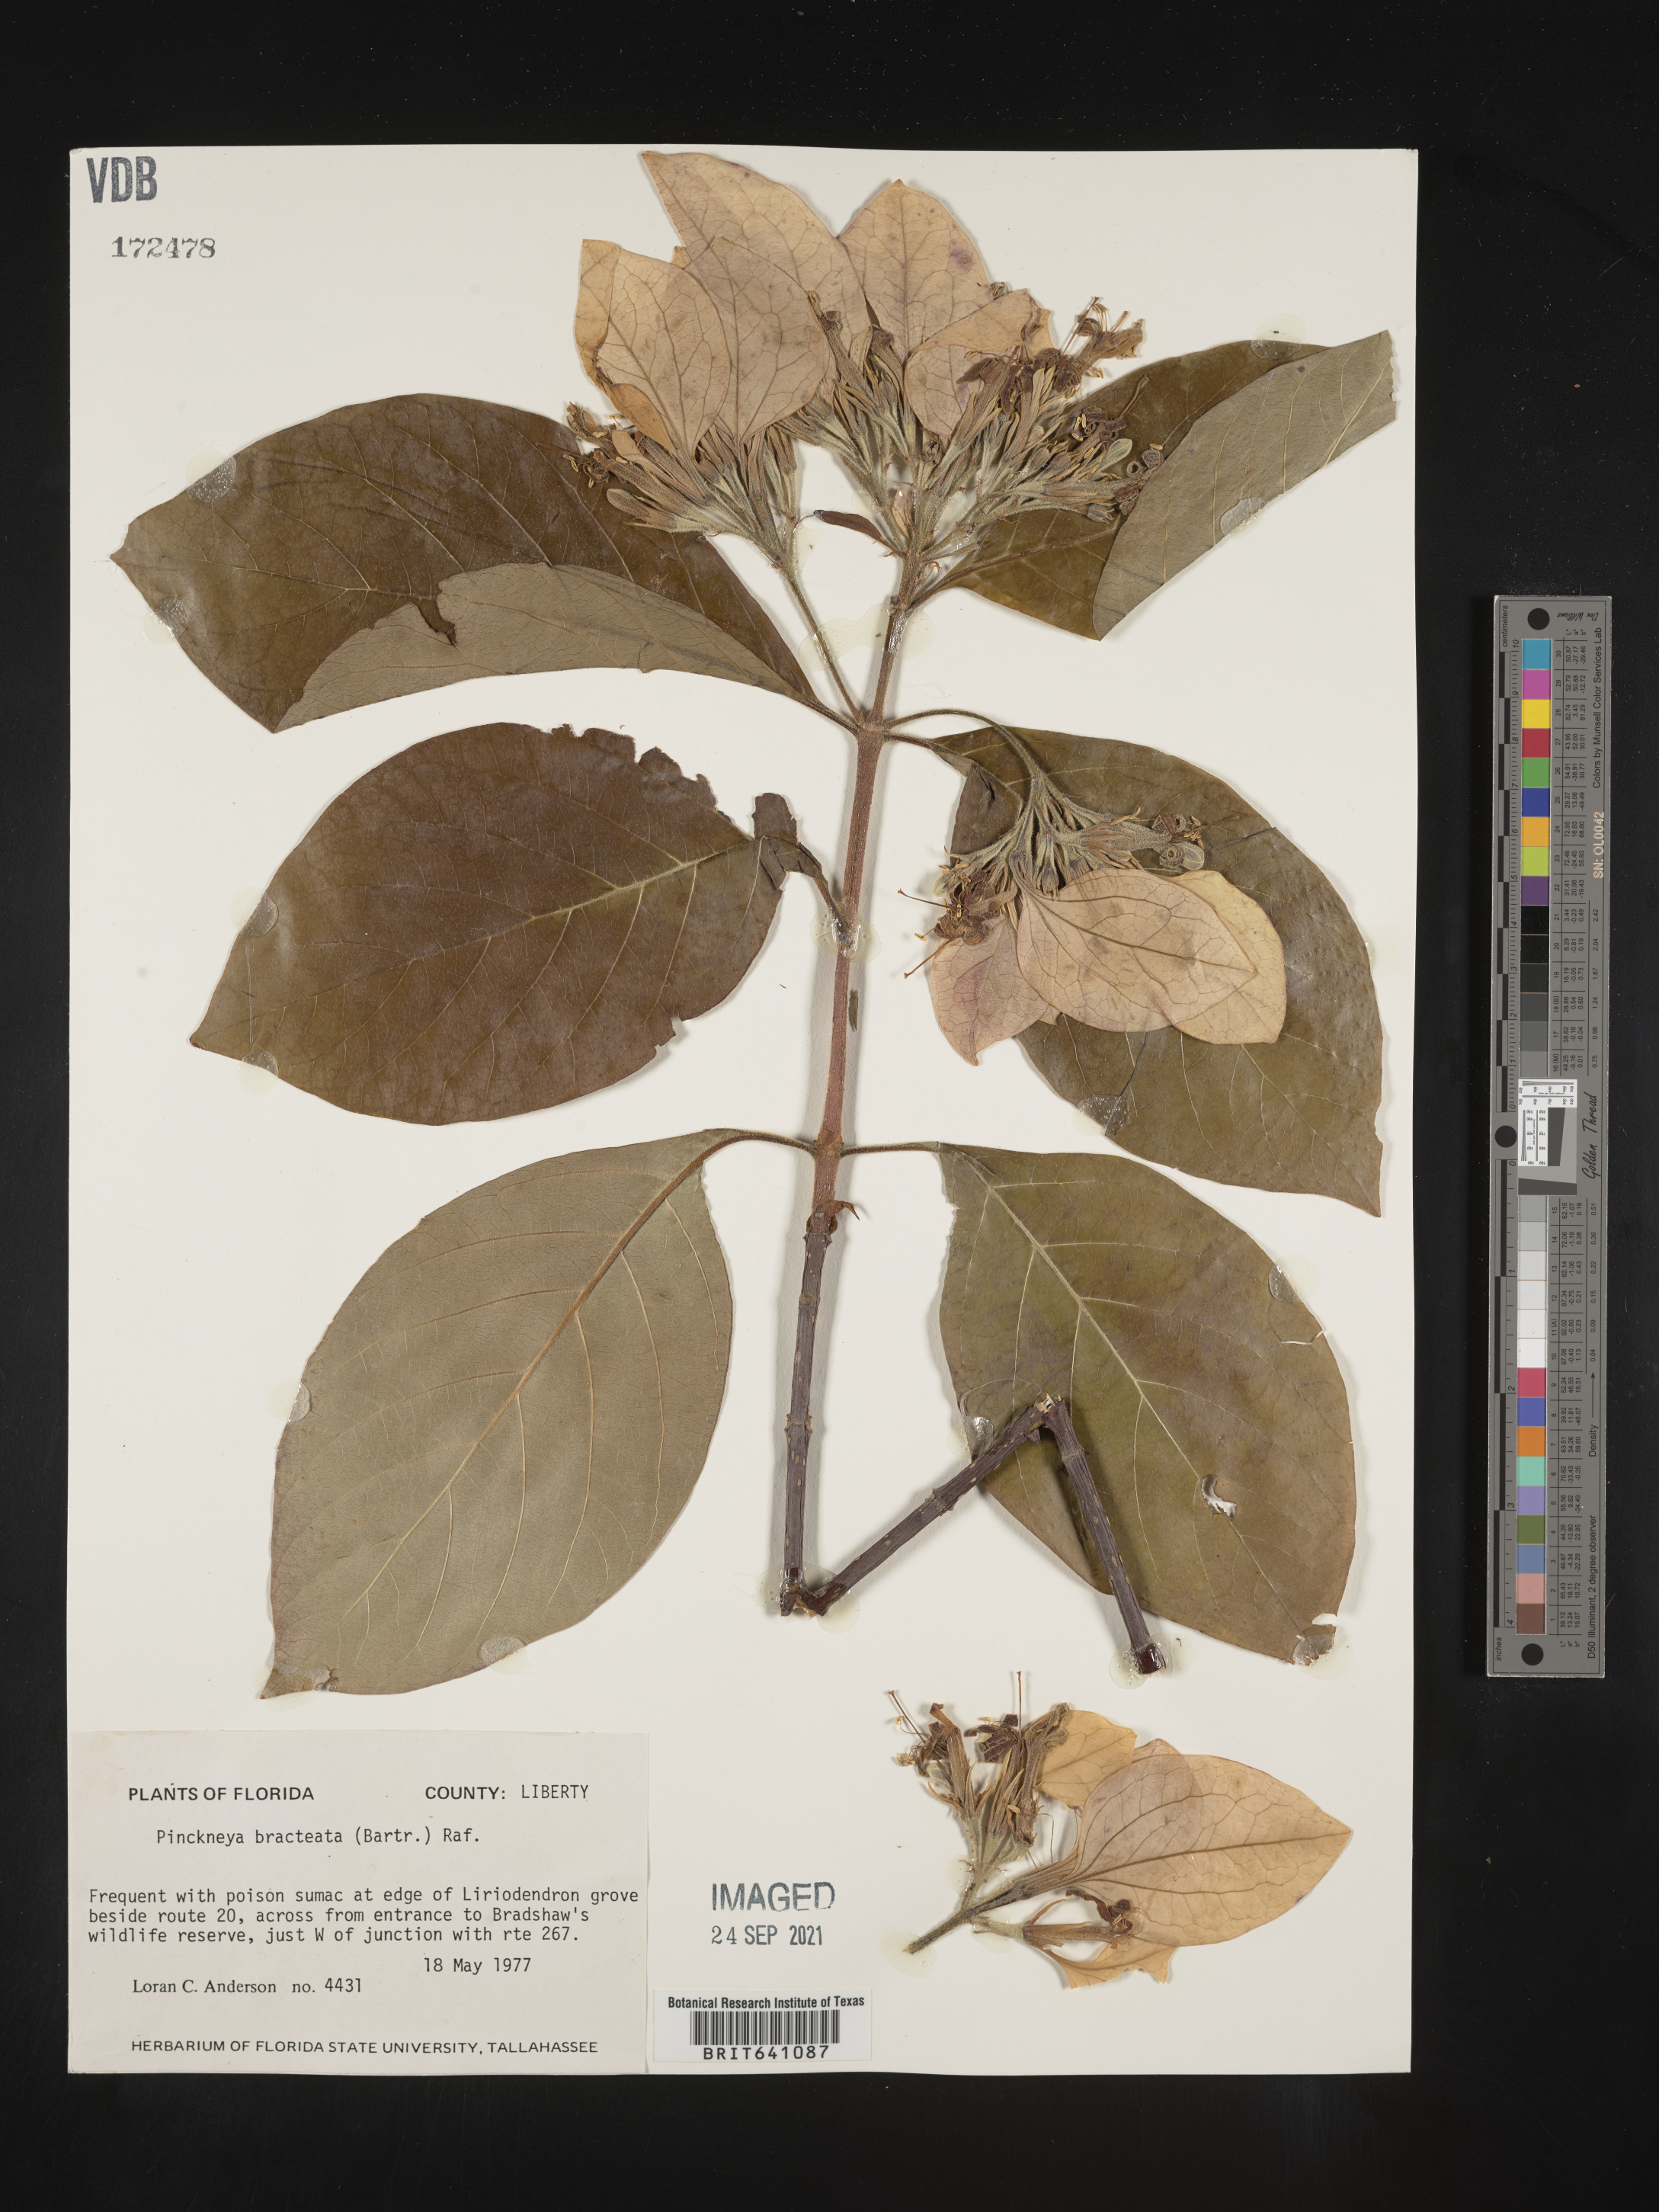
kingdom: Plantae
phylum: Tracheophyta
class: Magnoliopsida
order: Gentianales
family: Rubiaceae
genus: Pinckneya
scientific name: Pinckneya pubens
